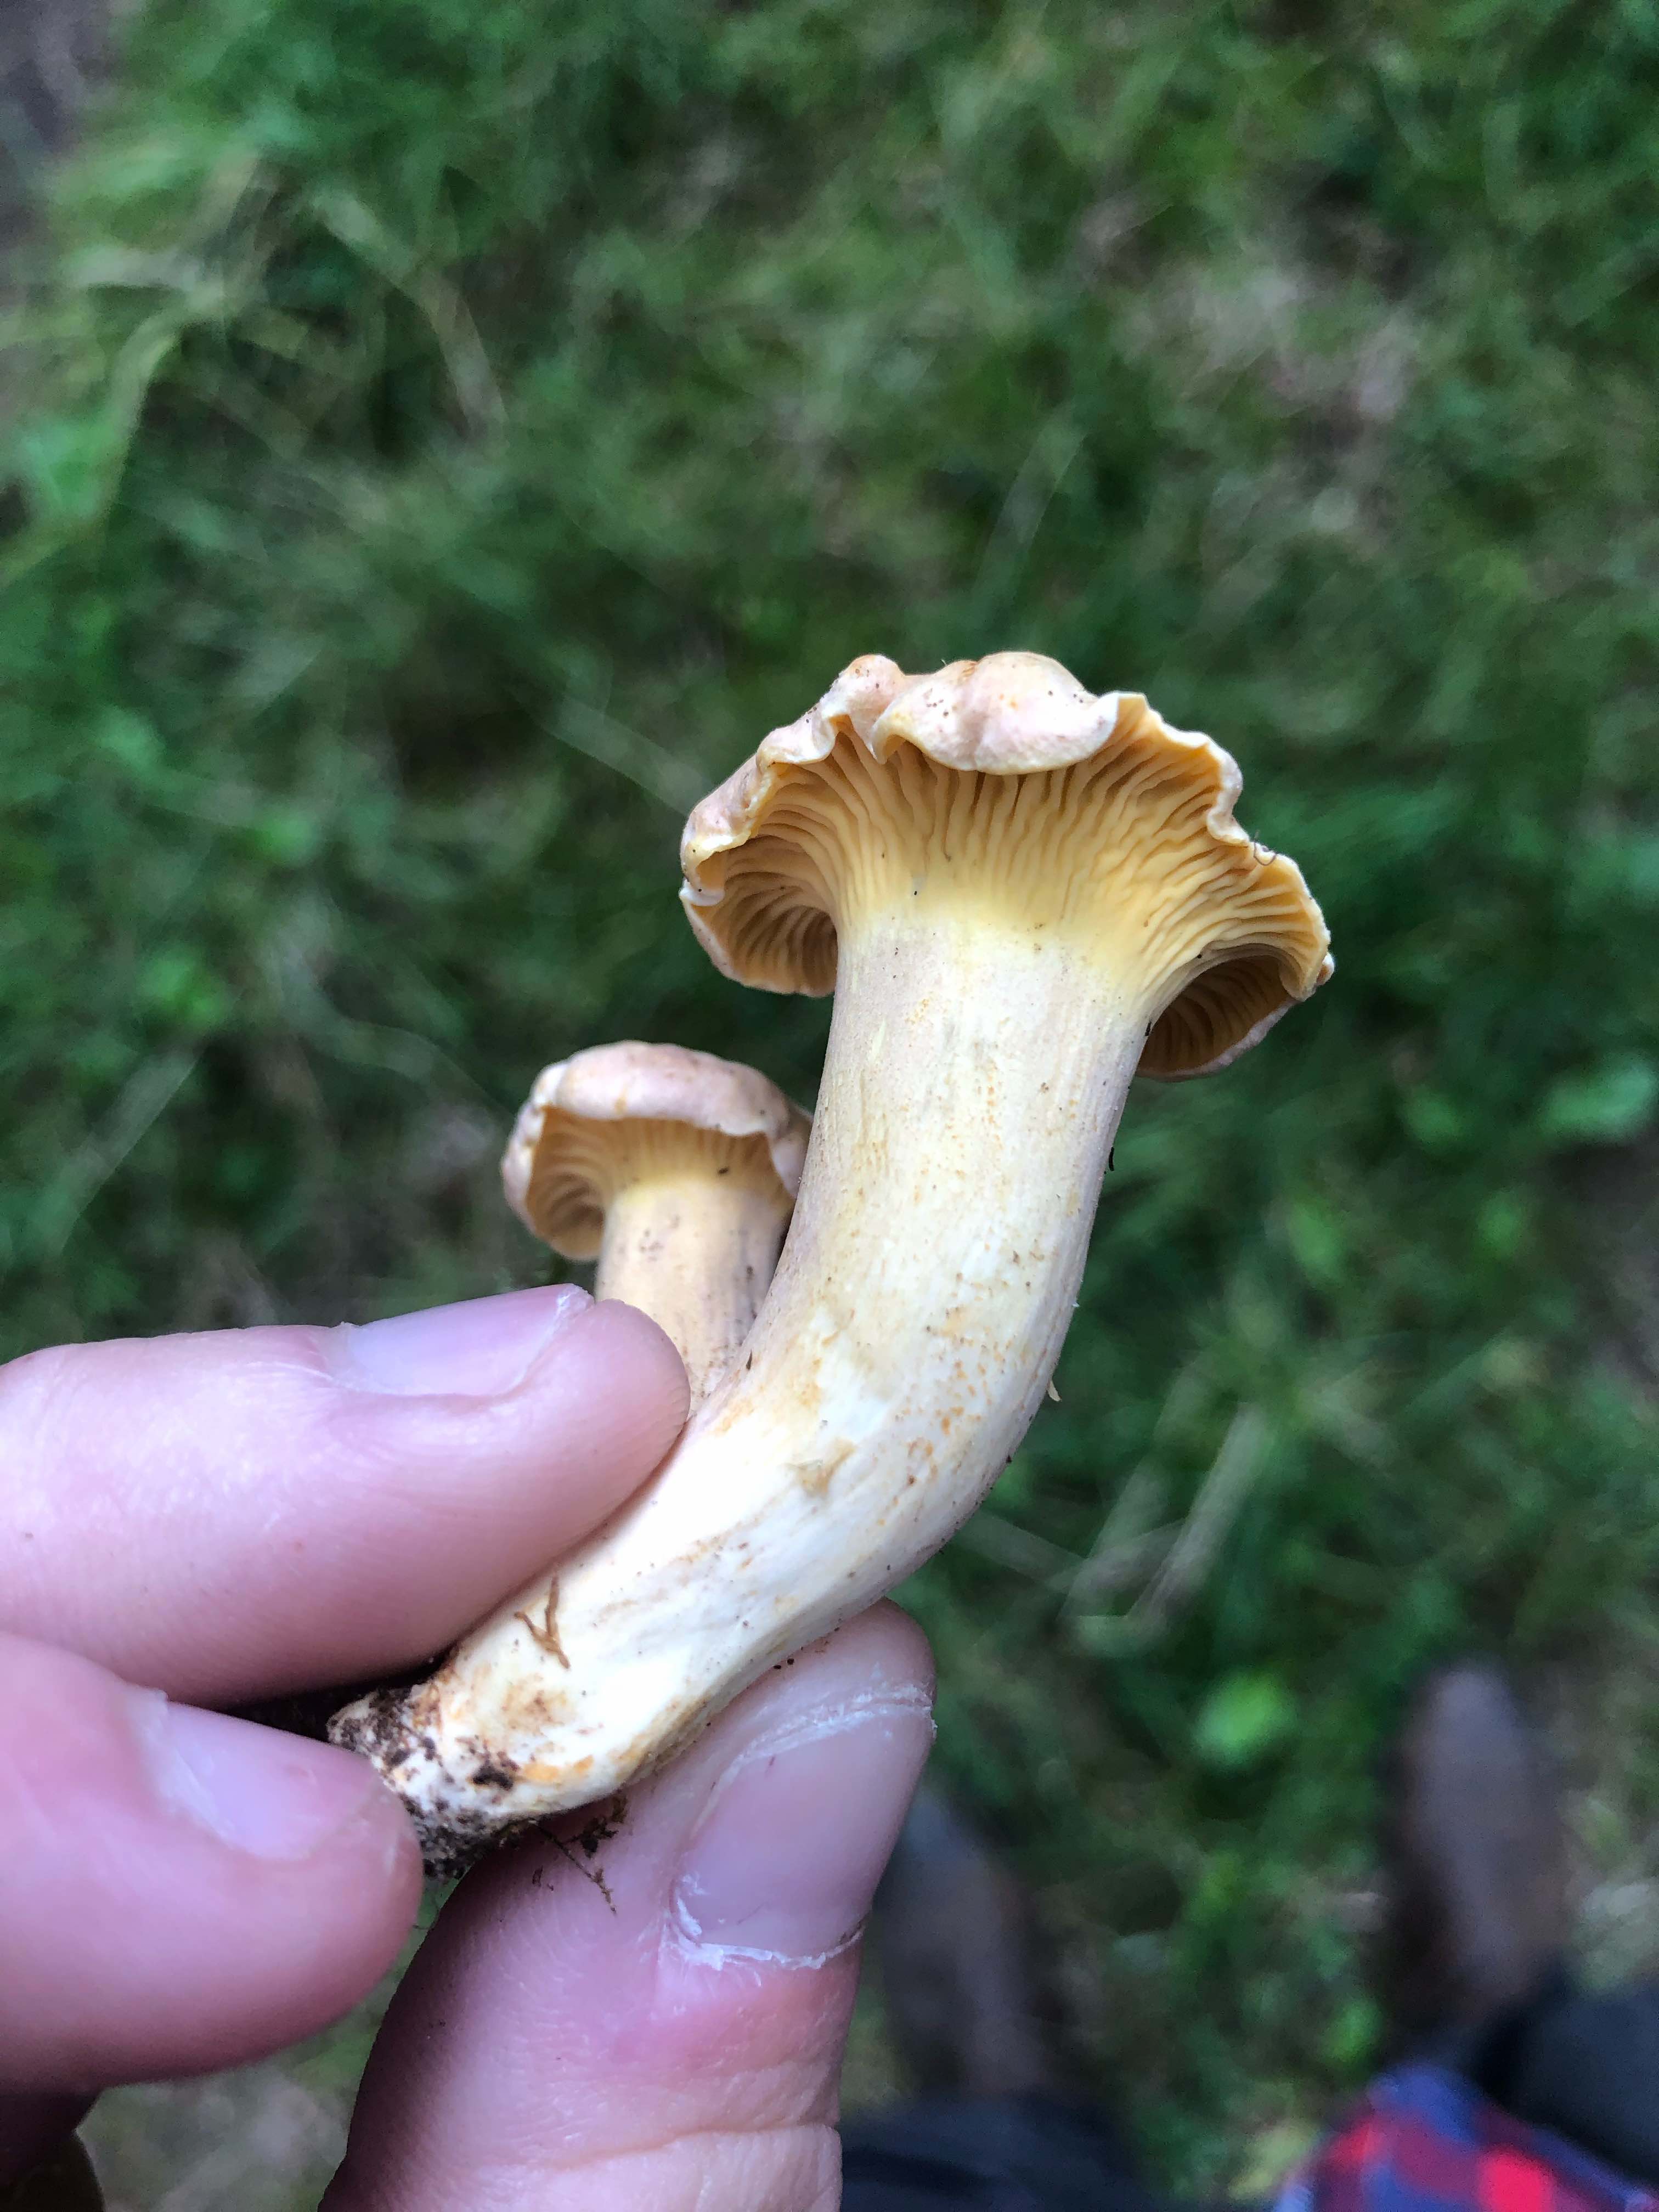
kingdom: Fungi
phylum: Basidiomycota
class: Agaricomycetes
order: Cantharellales
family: Hydnaceae
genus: Cantharellus
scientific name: Cantharellus pallens
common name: bleg kantarel
